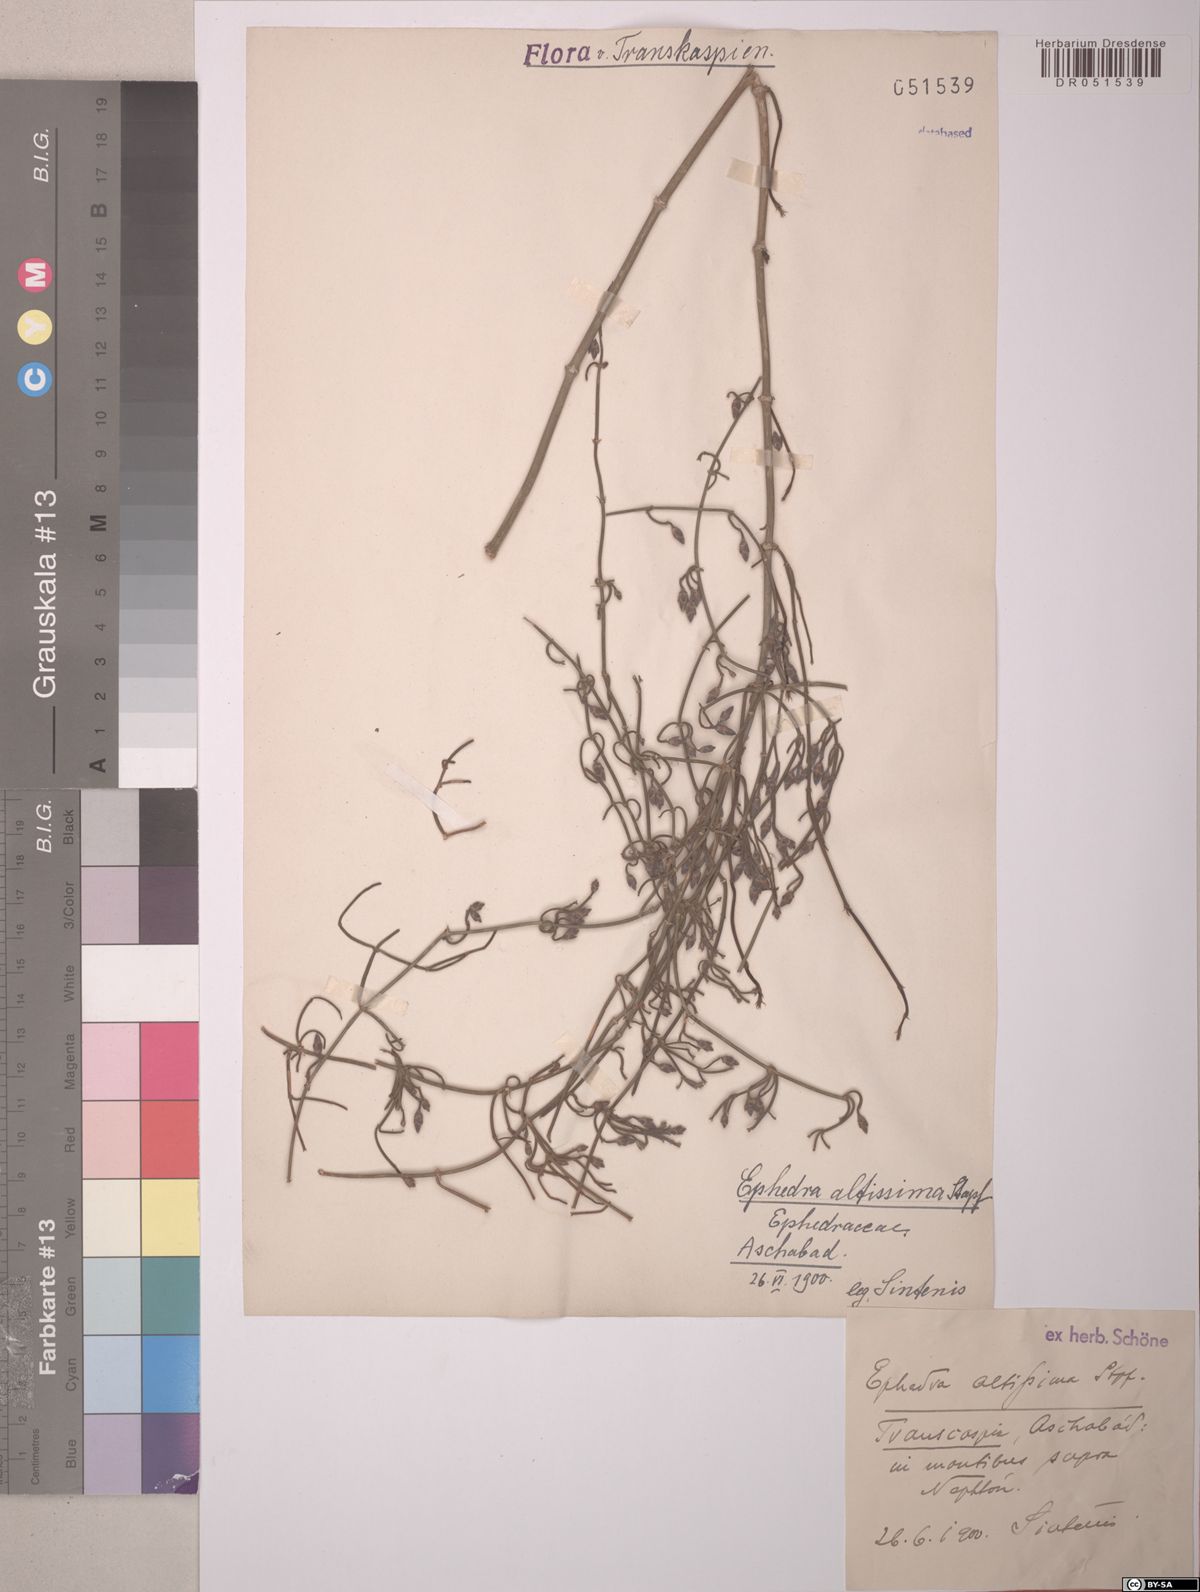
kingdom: Plantae
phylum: Tracheophyta
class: Gnetopsida
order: Ephedrales
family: Ephedraceae
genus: Ephedra
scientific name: Ephedra altissima
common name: High-climbing jointfir
